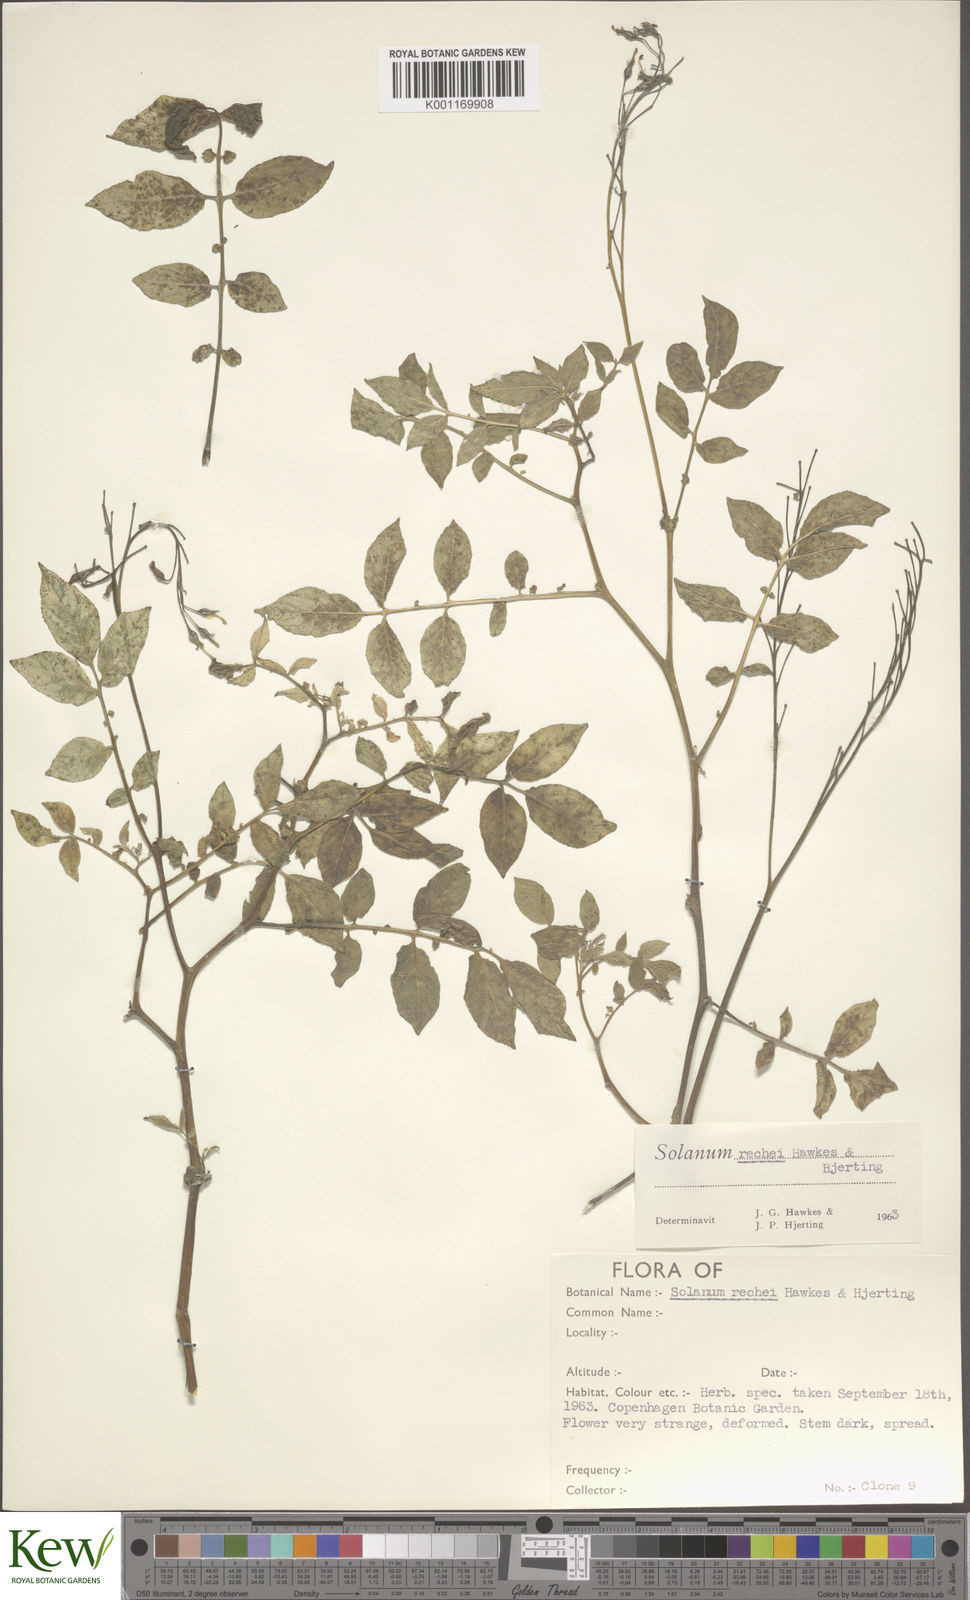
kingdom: Plantae
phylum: Tracheophyta
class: Magnoliopsida
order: Solanales
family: Solanaceae
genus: Solanum
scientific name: Solanum rechei
